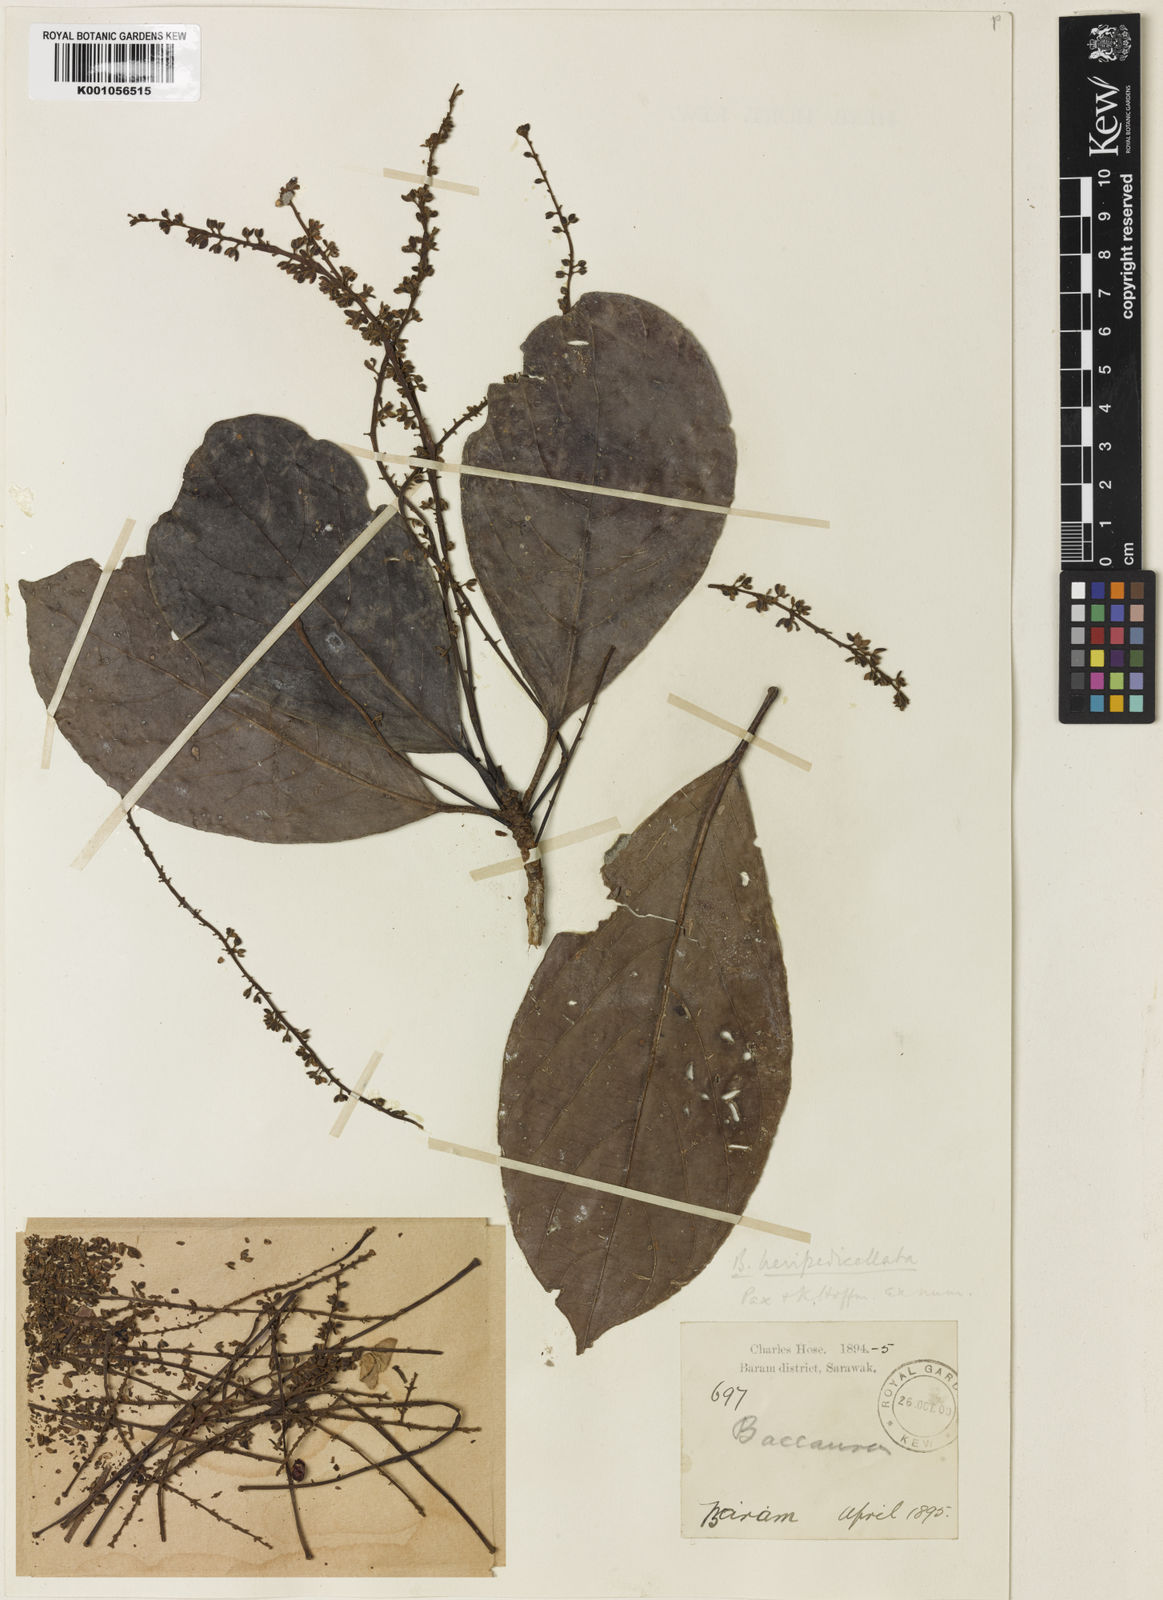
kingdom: Plantae
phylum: Tracheophyta
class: Magnoliopsida
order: Malpighiales
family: Phyllanthaceae
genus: Baccaurea
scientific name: Baccaurea tetrandra
